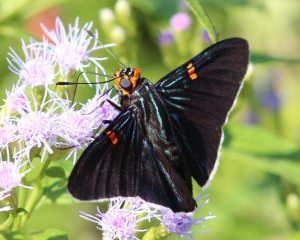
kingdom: Animalia
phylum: Arthropoda
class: Insecta
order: Lepidoptera
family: Hesperiidae
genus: Phocides
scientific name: Phocides polybius
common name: Guava Skipper
